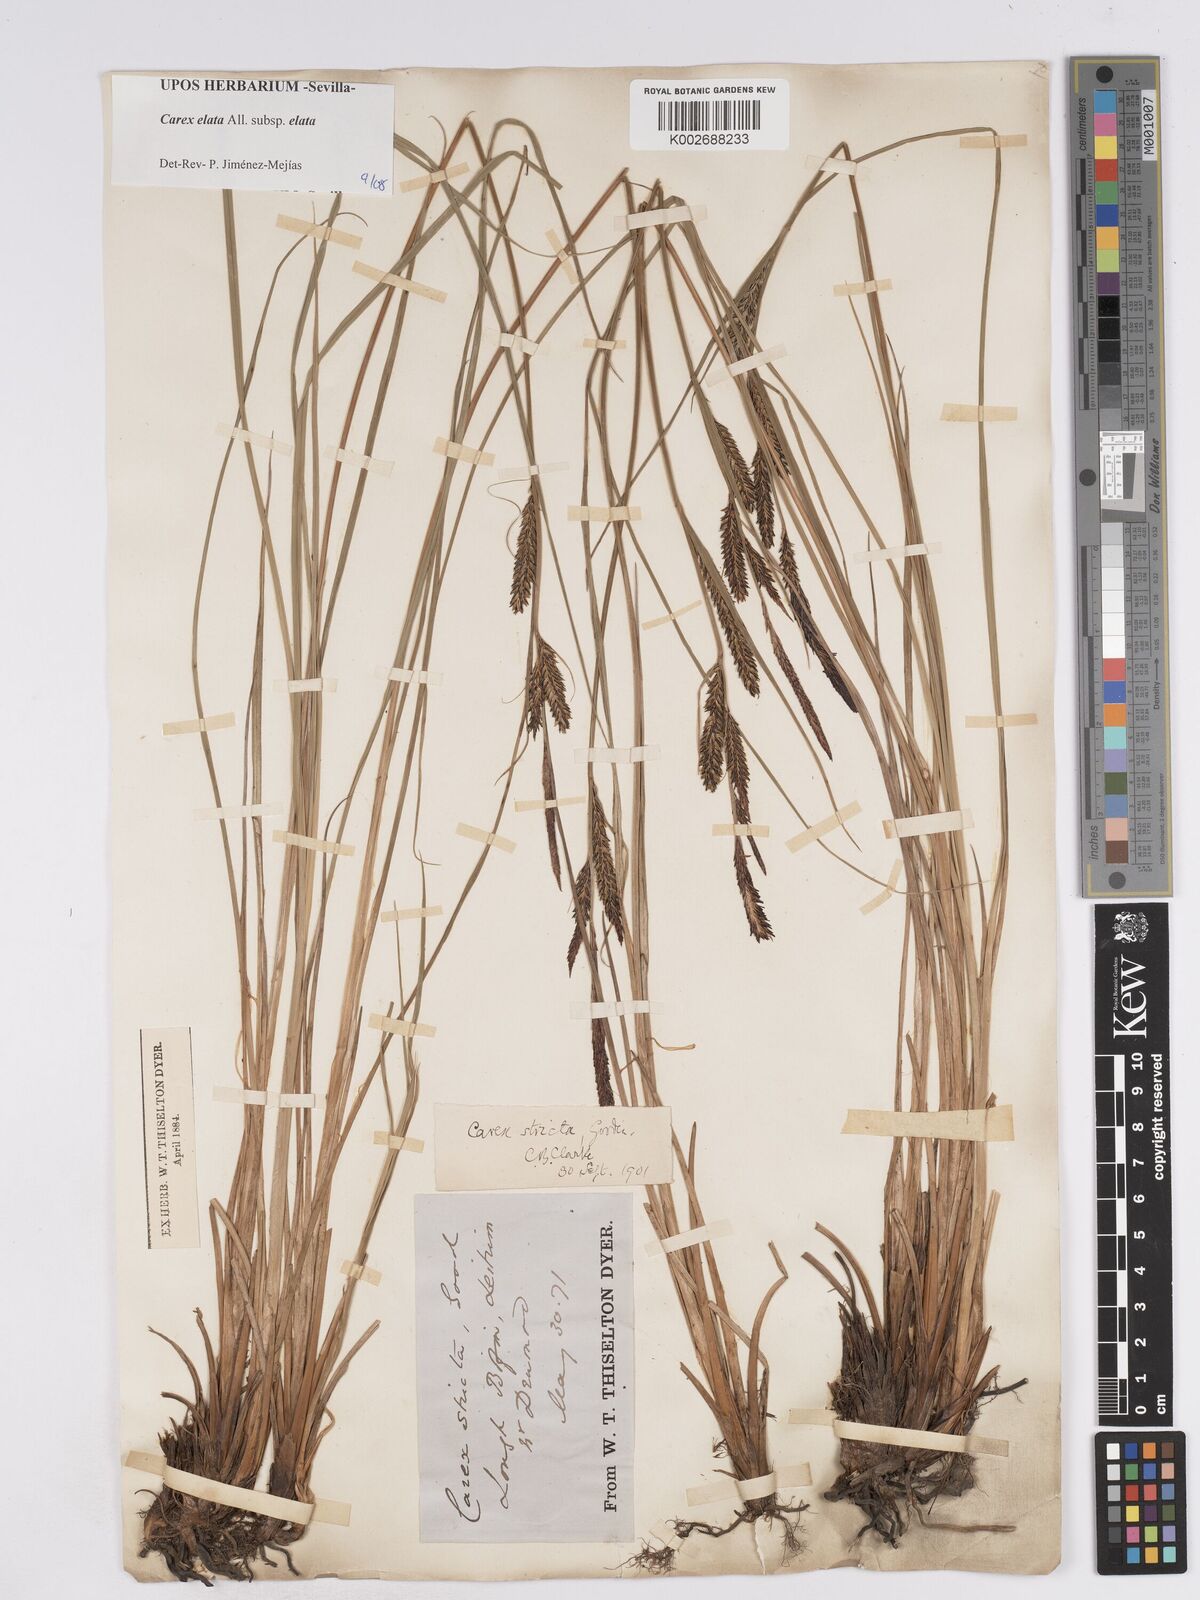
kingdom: Plantae
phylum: Tracheophyta
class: Liliopsida
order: Poales
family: Cyperaceae
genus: Carex
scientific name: Carex elata
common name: Tufted sedge
